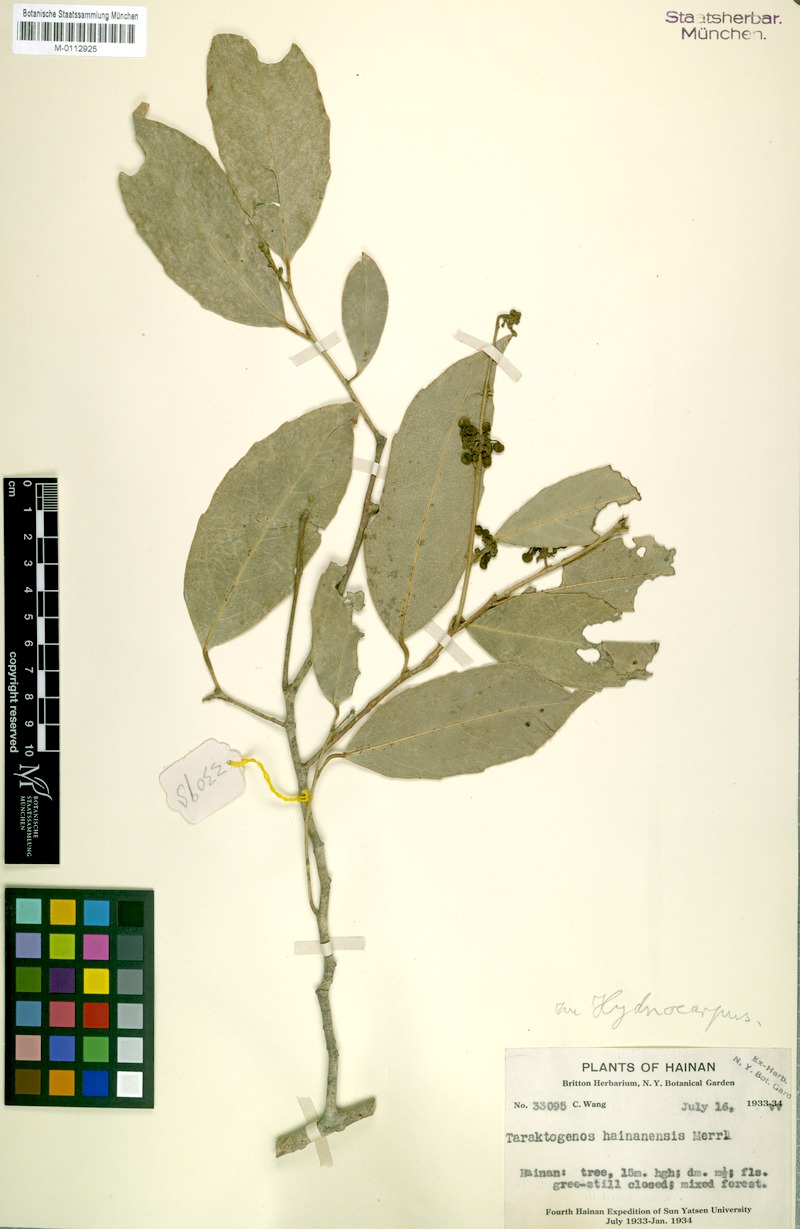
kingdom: Plantae
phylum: Tracheophyta
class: Magnoliopsida
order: Malpighiales
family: Achariaceae
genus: Hydnocarpus
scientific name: Hydnocarpus hainanensis
